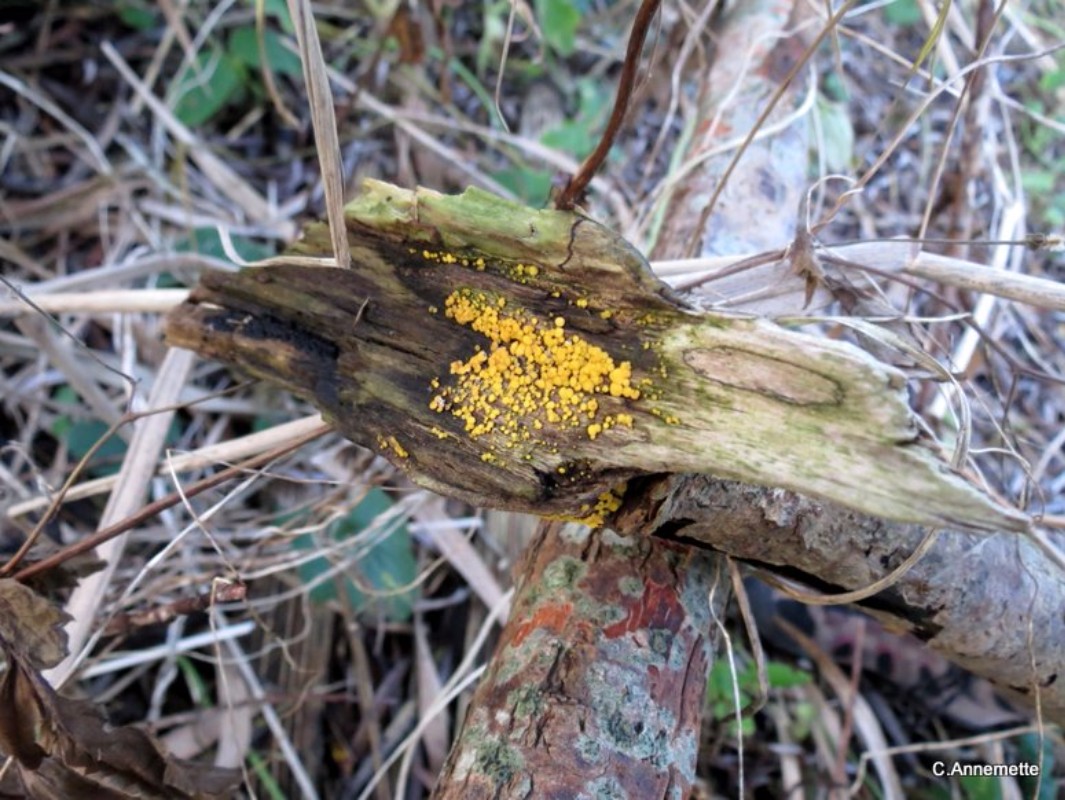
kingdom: Fungi
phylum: Ascomycota
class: Leotiomycetes
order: Helotiales
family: Pezizellaceae
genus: Calycina
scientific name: Calycina citrina
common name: almindelig gulskive
